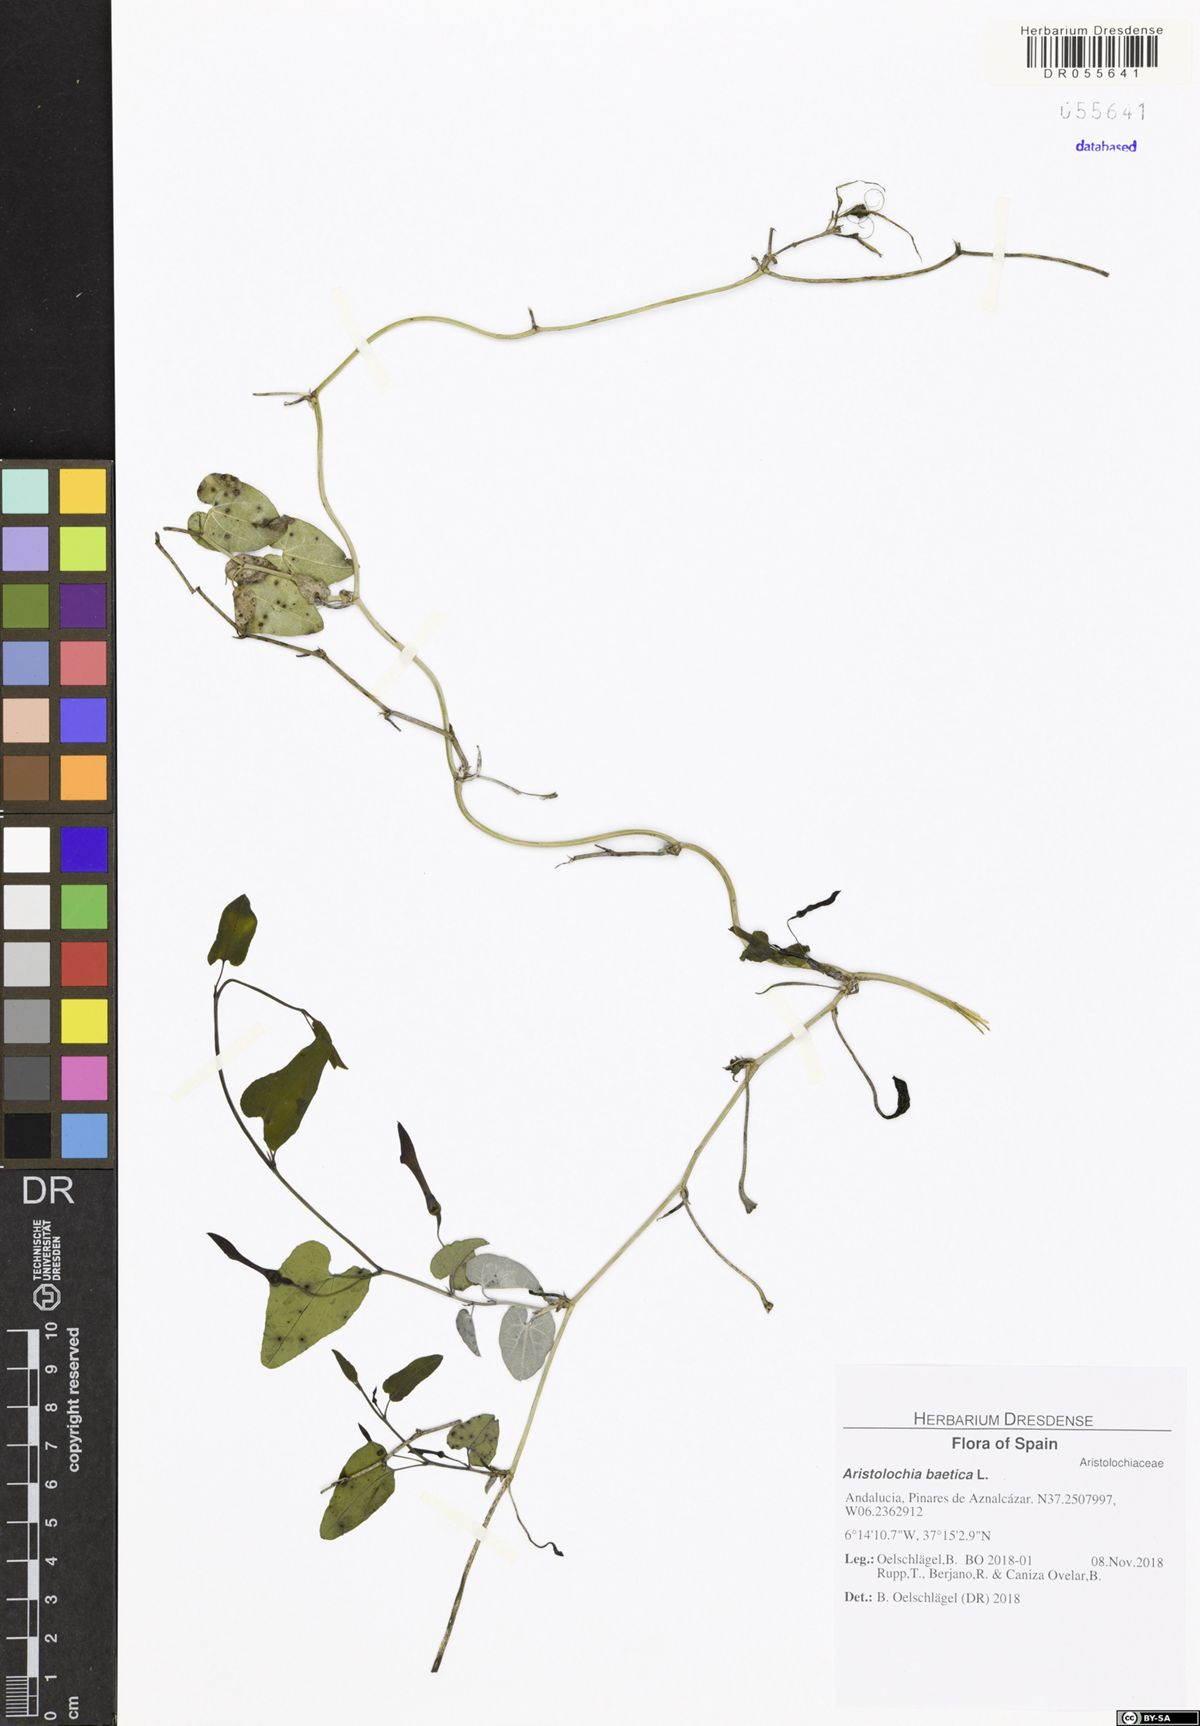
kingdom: Plantae
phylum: Tracheophyta
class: Magnoliopsida
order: Piperales
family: Aristolochiaceae
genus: Aristolochia
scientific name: Aristolochia baetica
